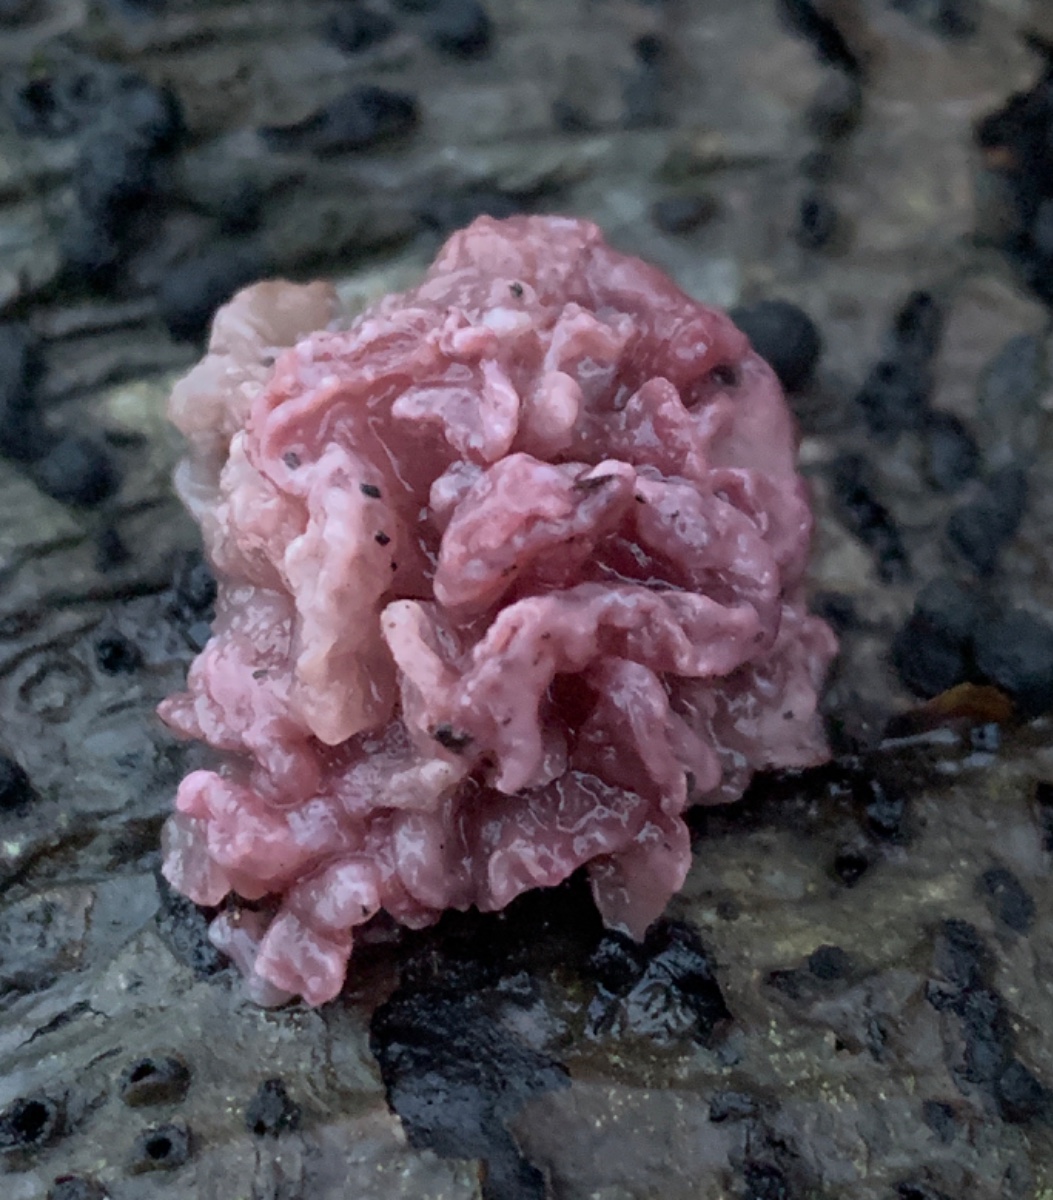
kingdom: Fungi
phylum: Ascomycota
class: Leotiomycetes
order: Helotiales
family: Gelatinodiscaceae
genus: Ascocoryne
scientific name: Ascocoryne sarcoides
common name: rødlilla sejskive
